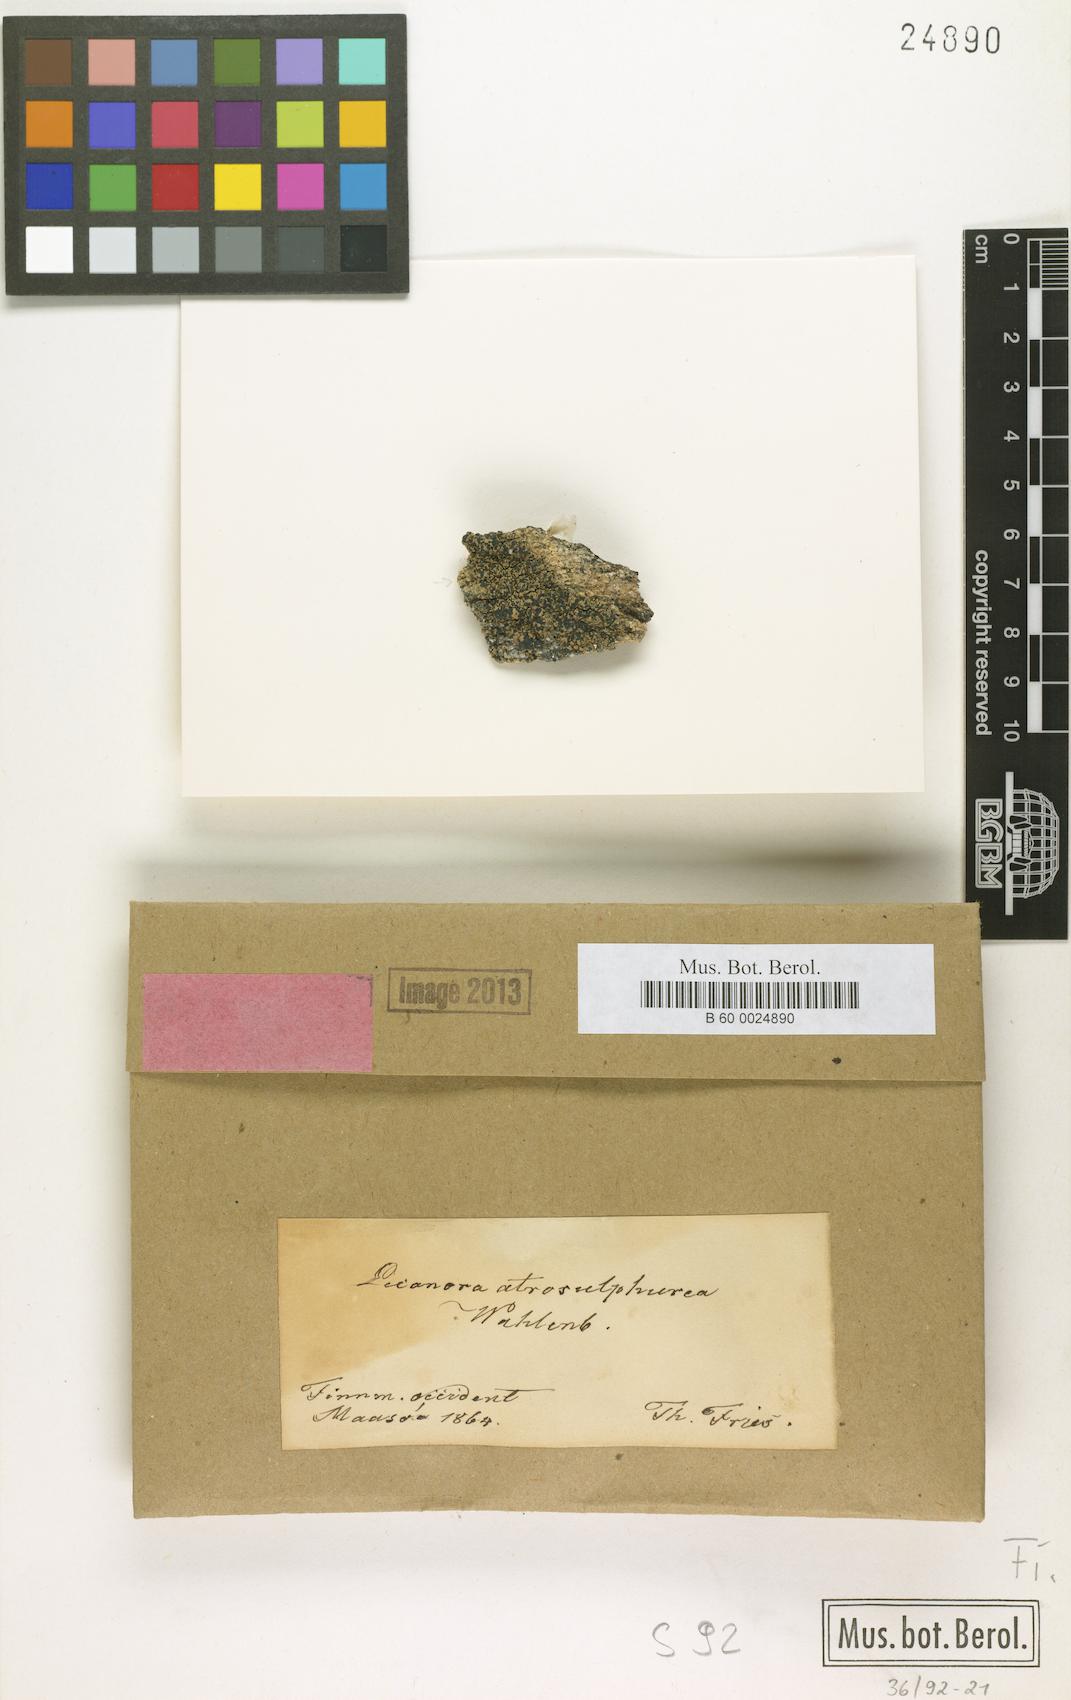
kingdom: Fungi
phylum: Ascomycota
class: Lecanoromycetes
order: Lecanorales
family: Lecanoraceae
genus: Lecanora
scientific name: Lecanora atrosulphurea
